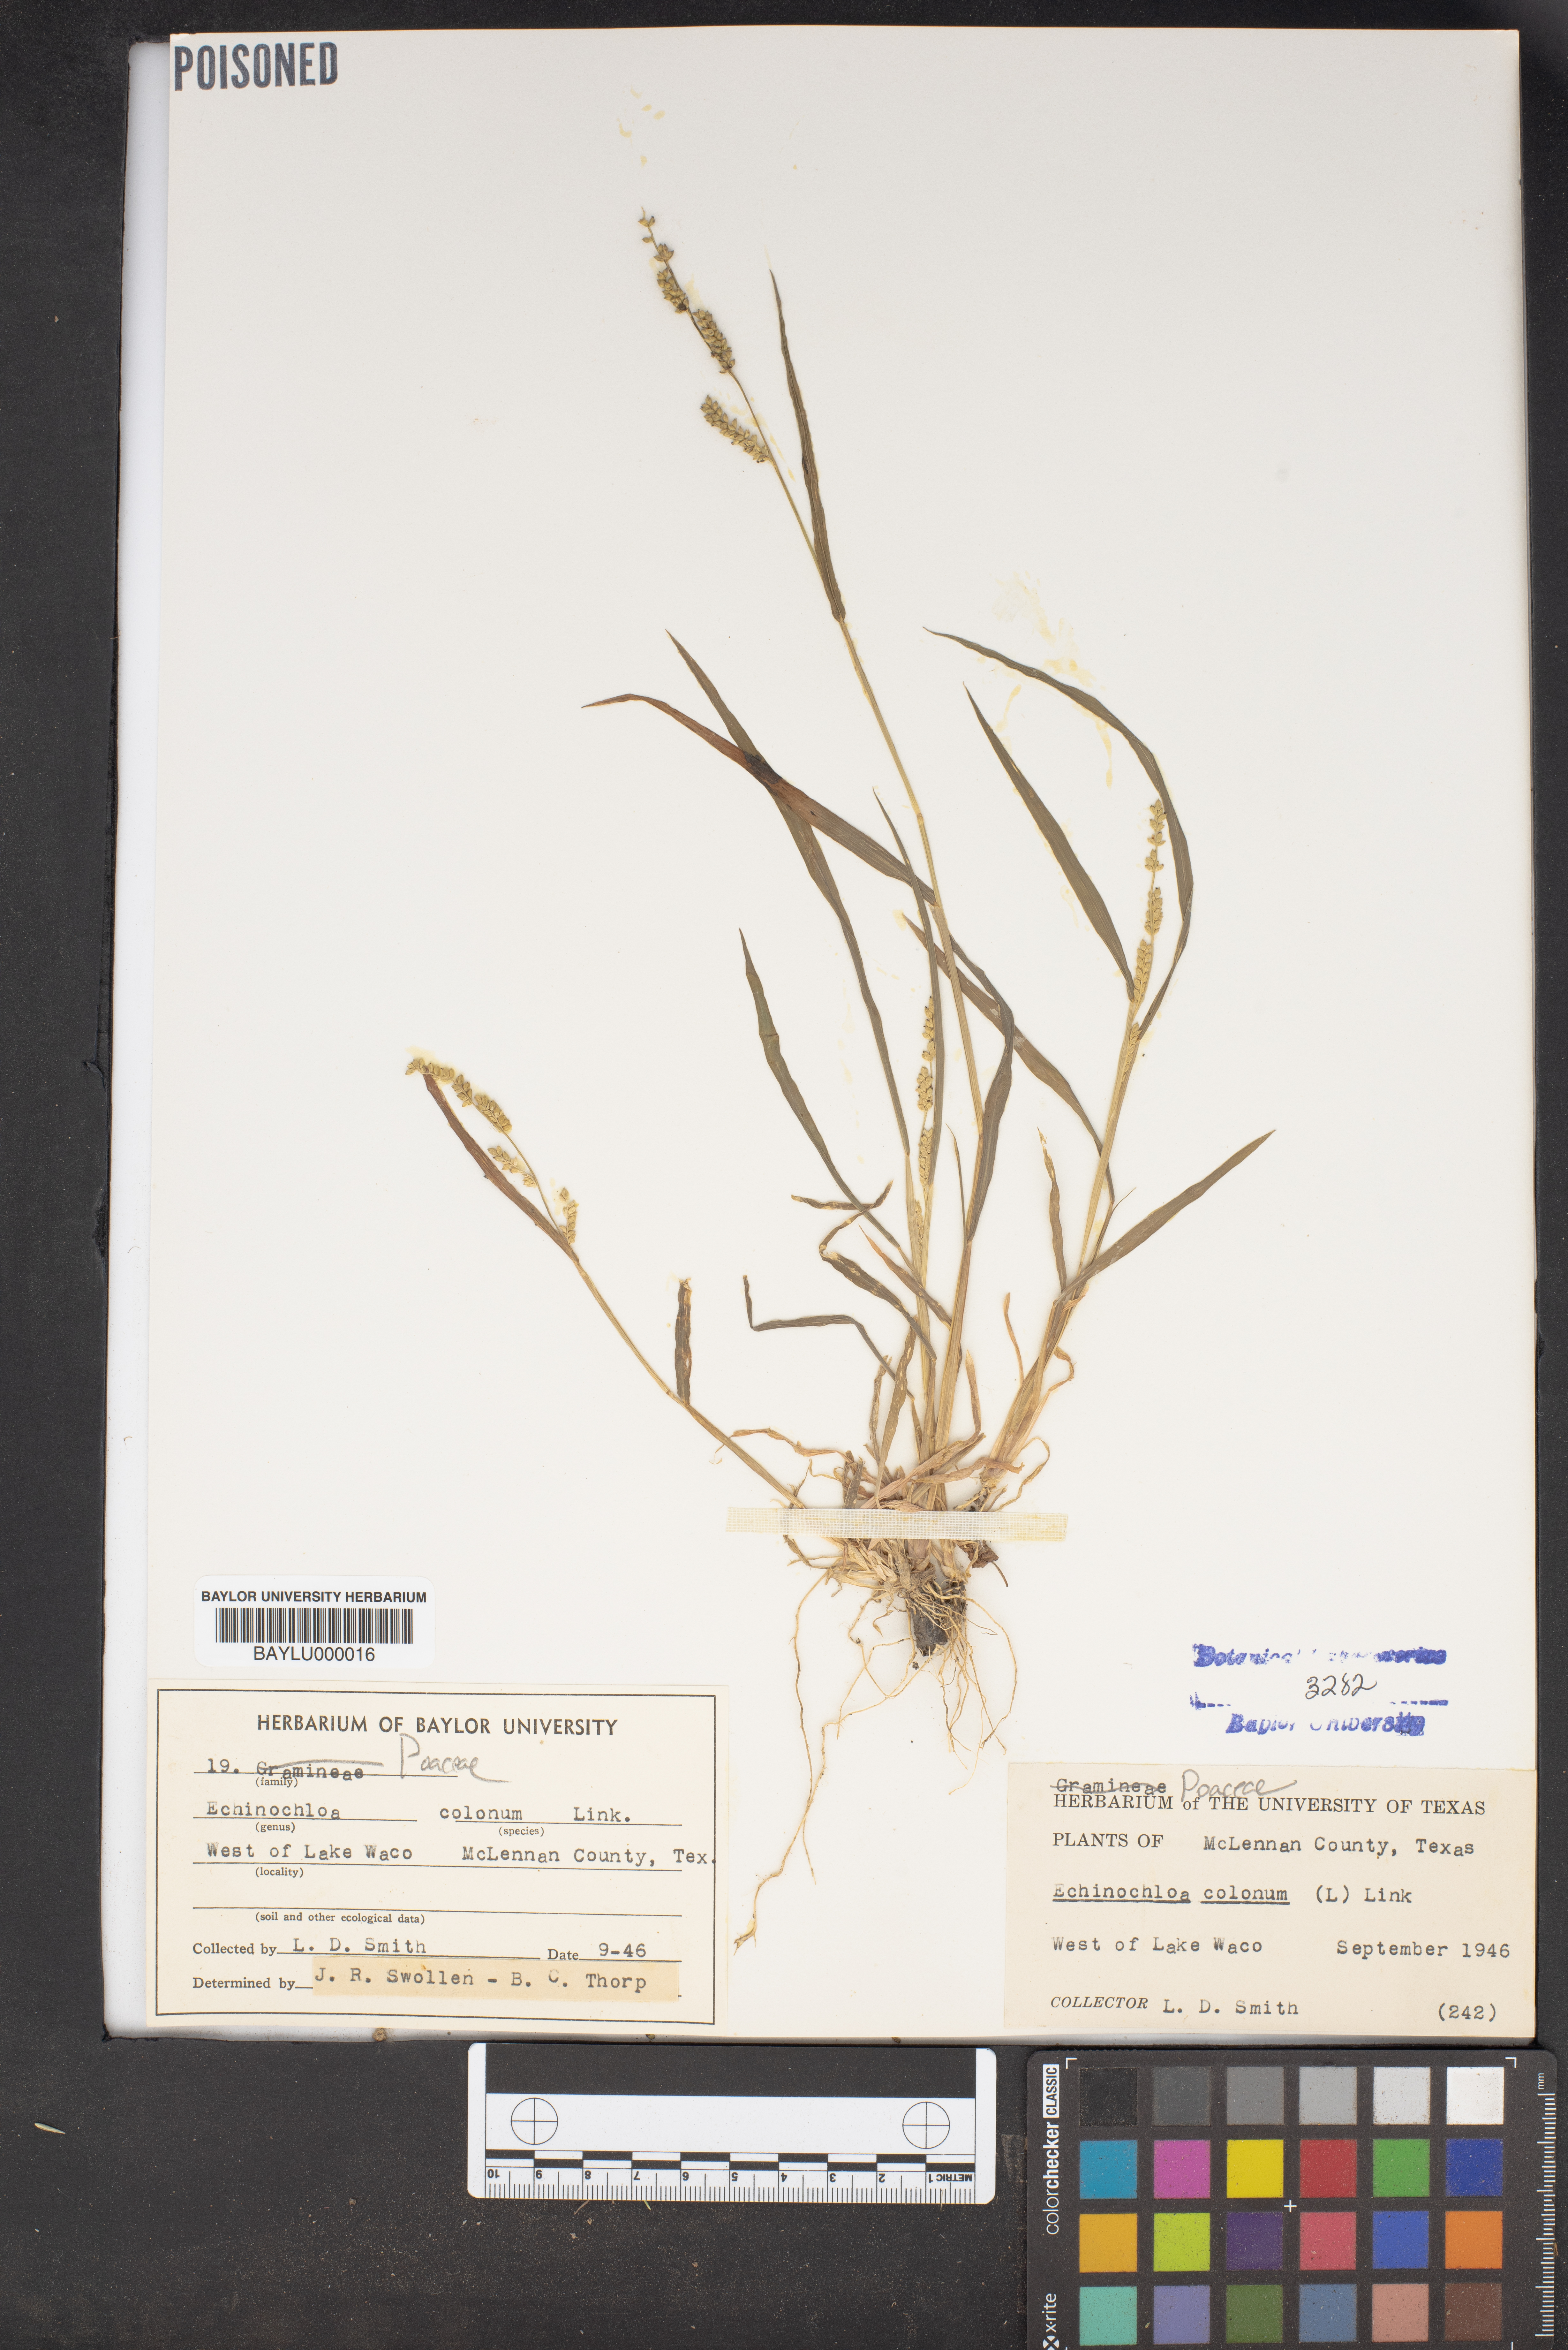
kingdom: Plantae
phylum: Tracheophyta
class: Liliopsida
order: Poales
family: Poaceae
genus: Echinochloa
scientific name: Echinochloa colonum
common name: Jungle rice
